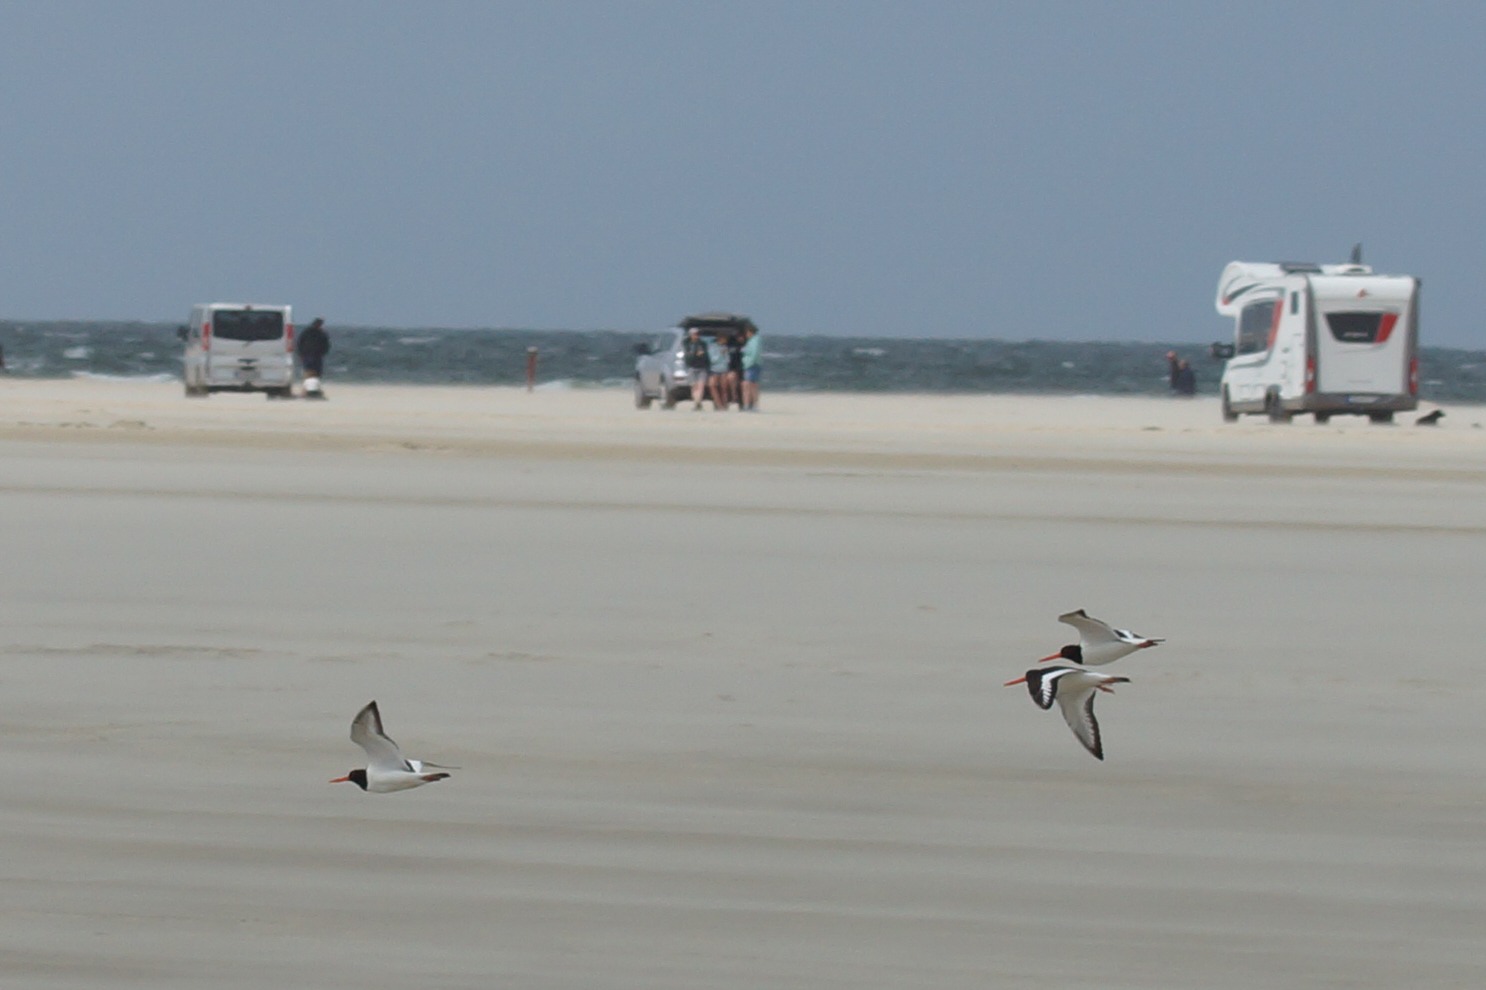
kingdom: Animalia
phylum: Chordata
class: Aves
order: Charadriiformes
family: Haematopodidae
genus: Haematopus
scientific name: Haematopus ostralegus
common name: Strandskade
